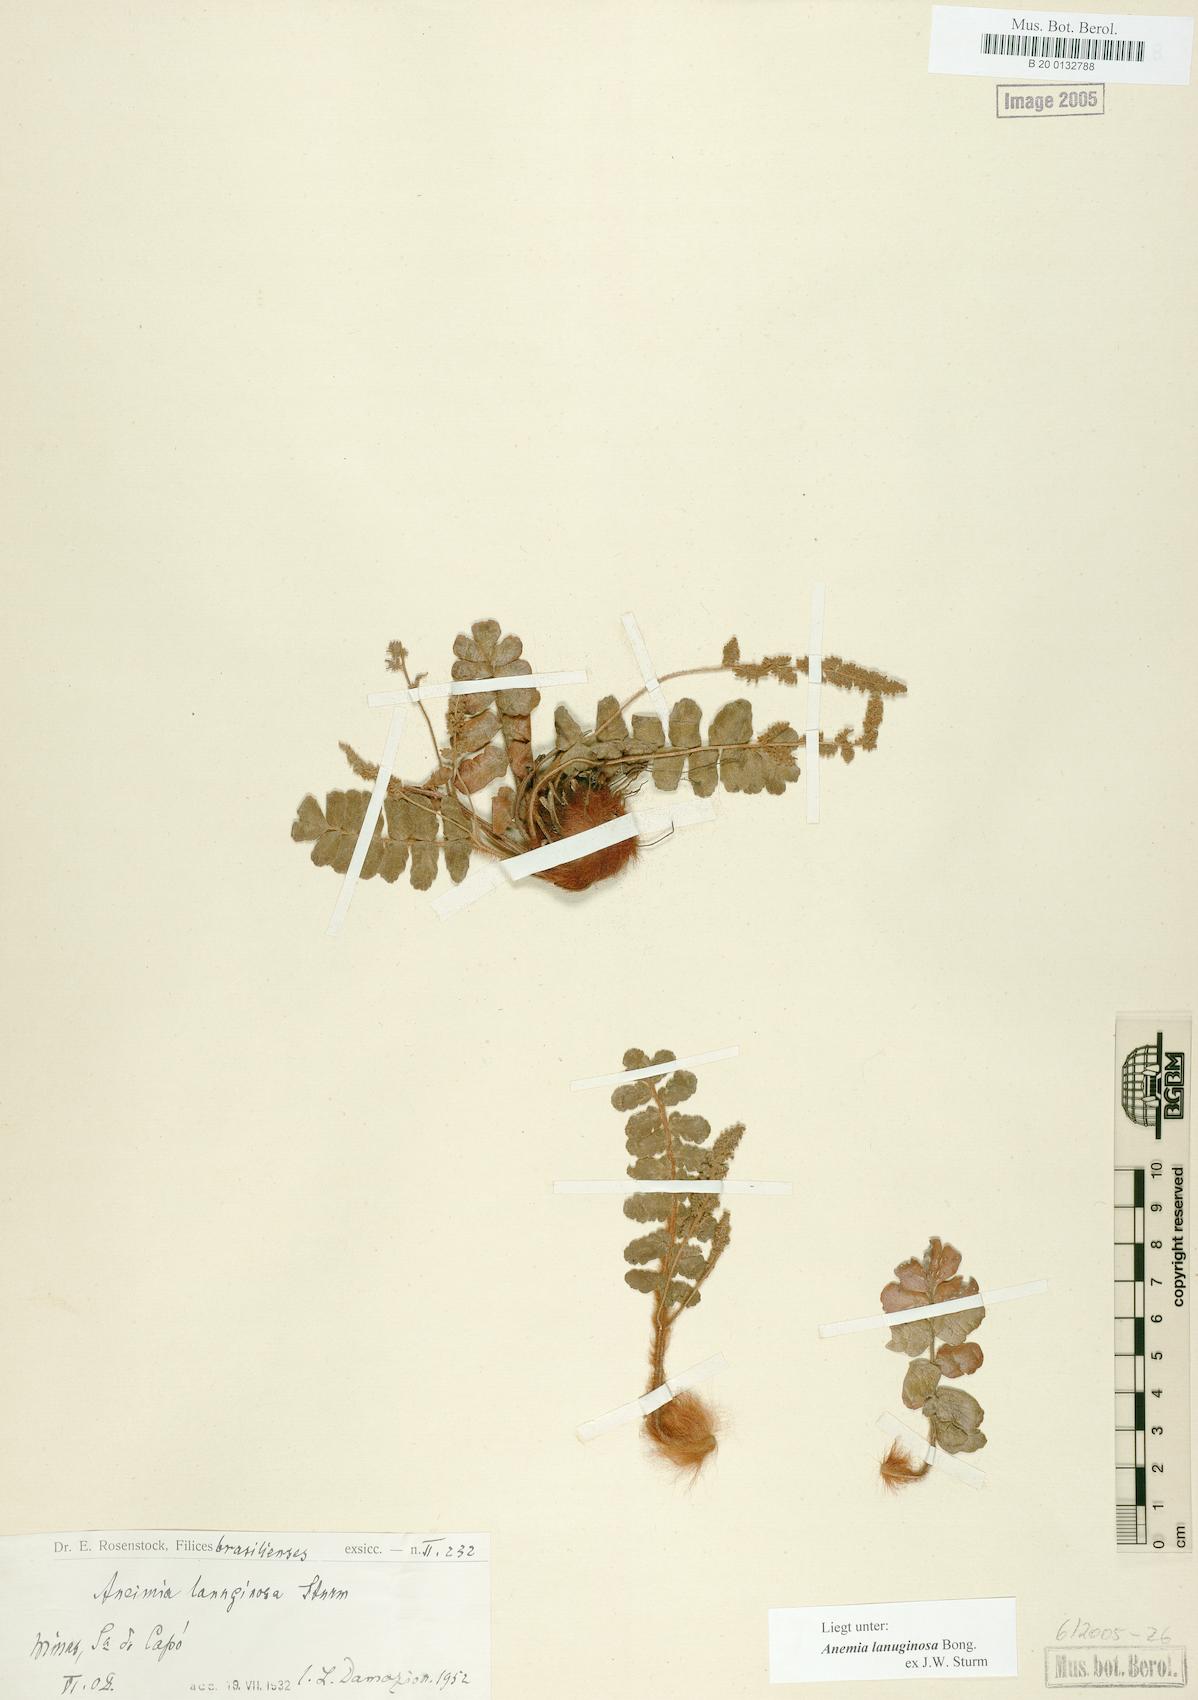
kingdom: Plantae
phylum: Tracheophyta
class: Polypodiopsida
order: Schizaeales
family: Anemiaceae
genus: Anemia
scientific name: Anemia lanuginosa
